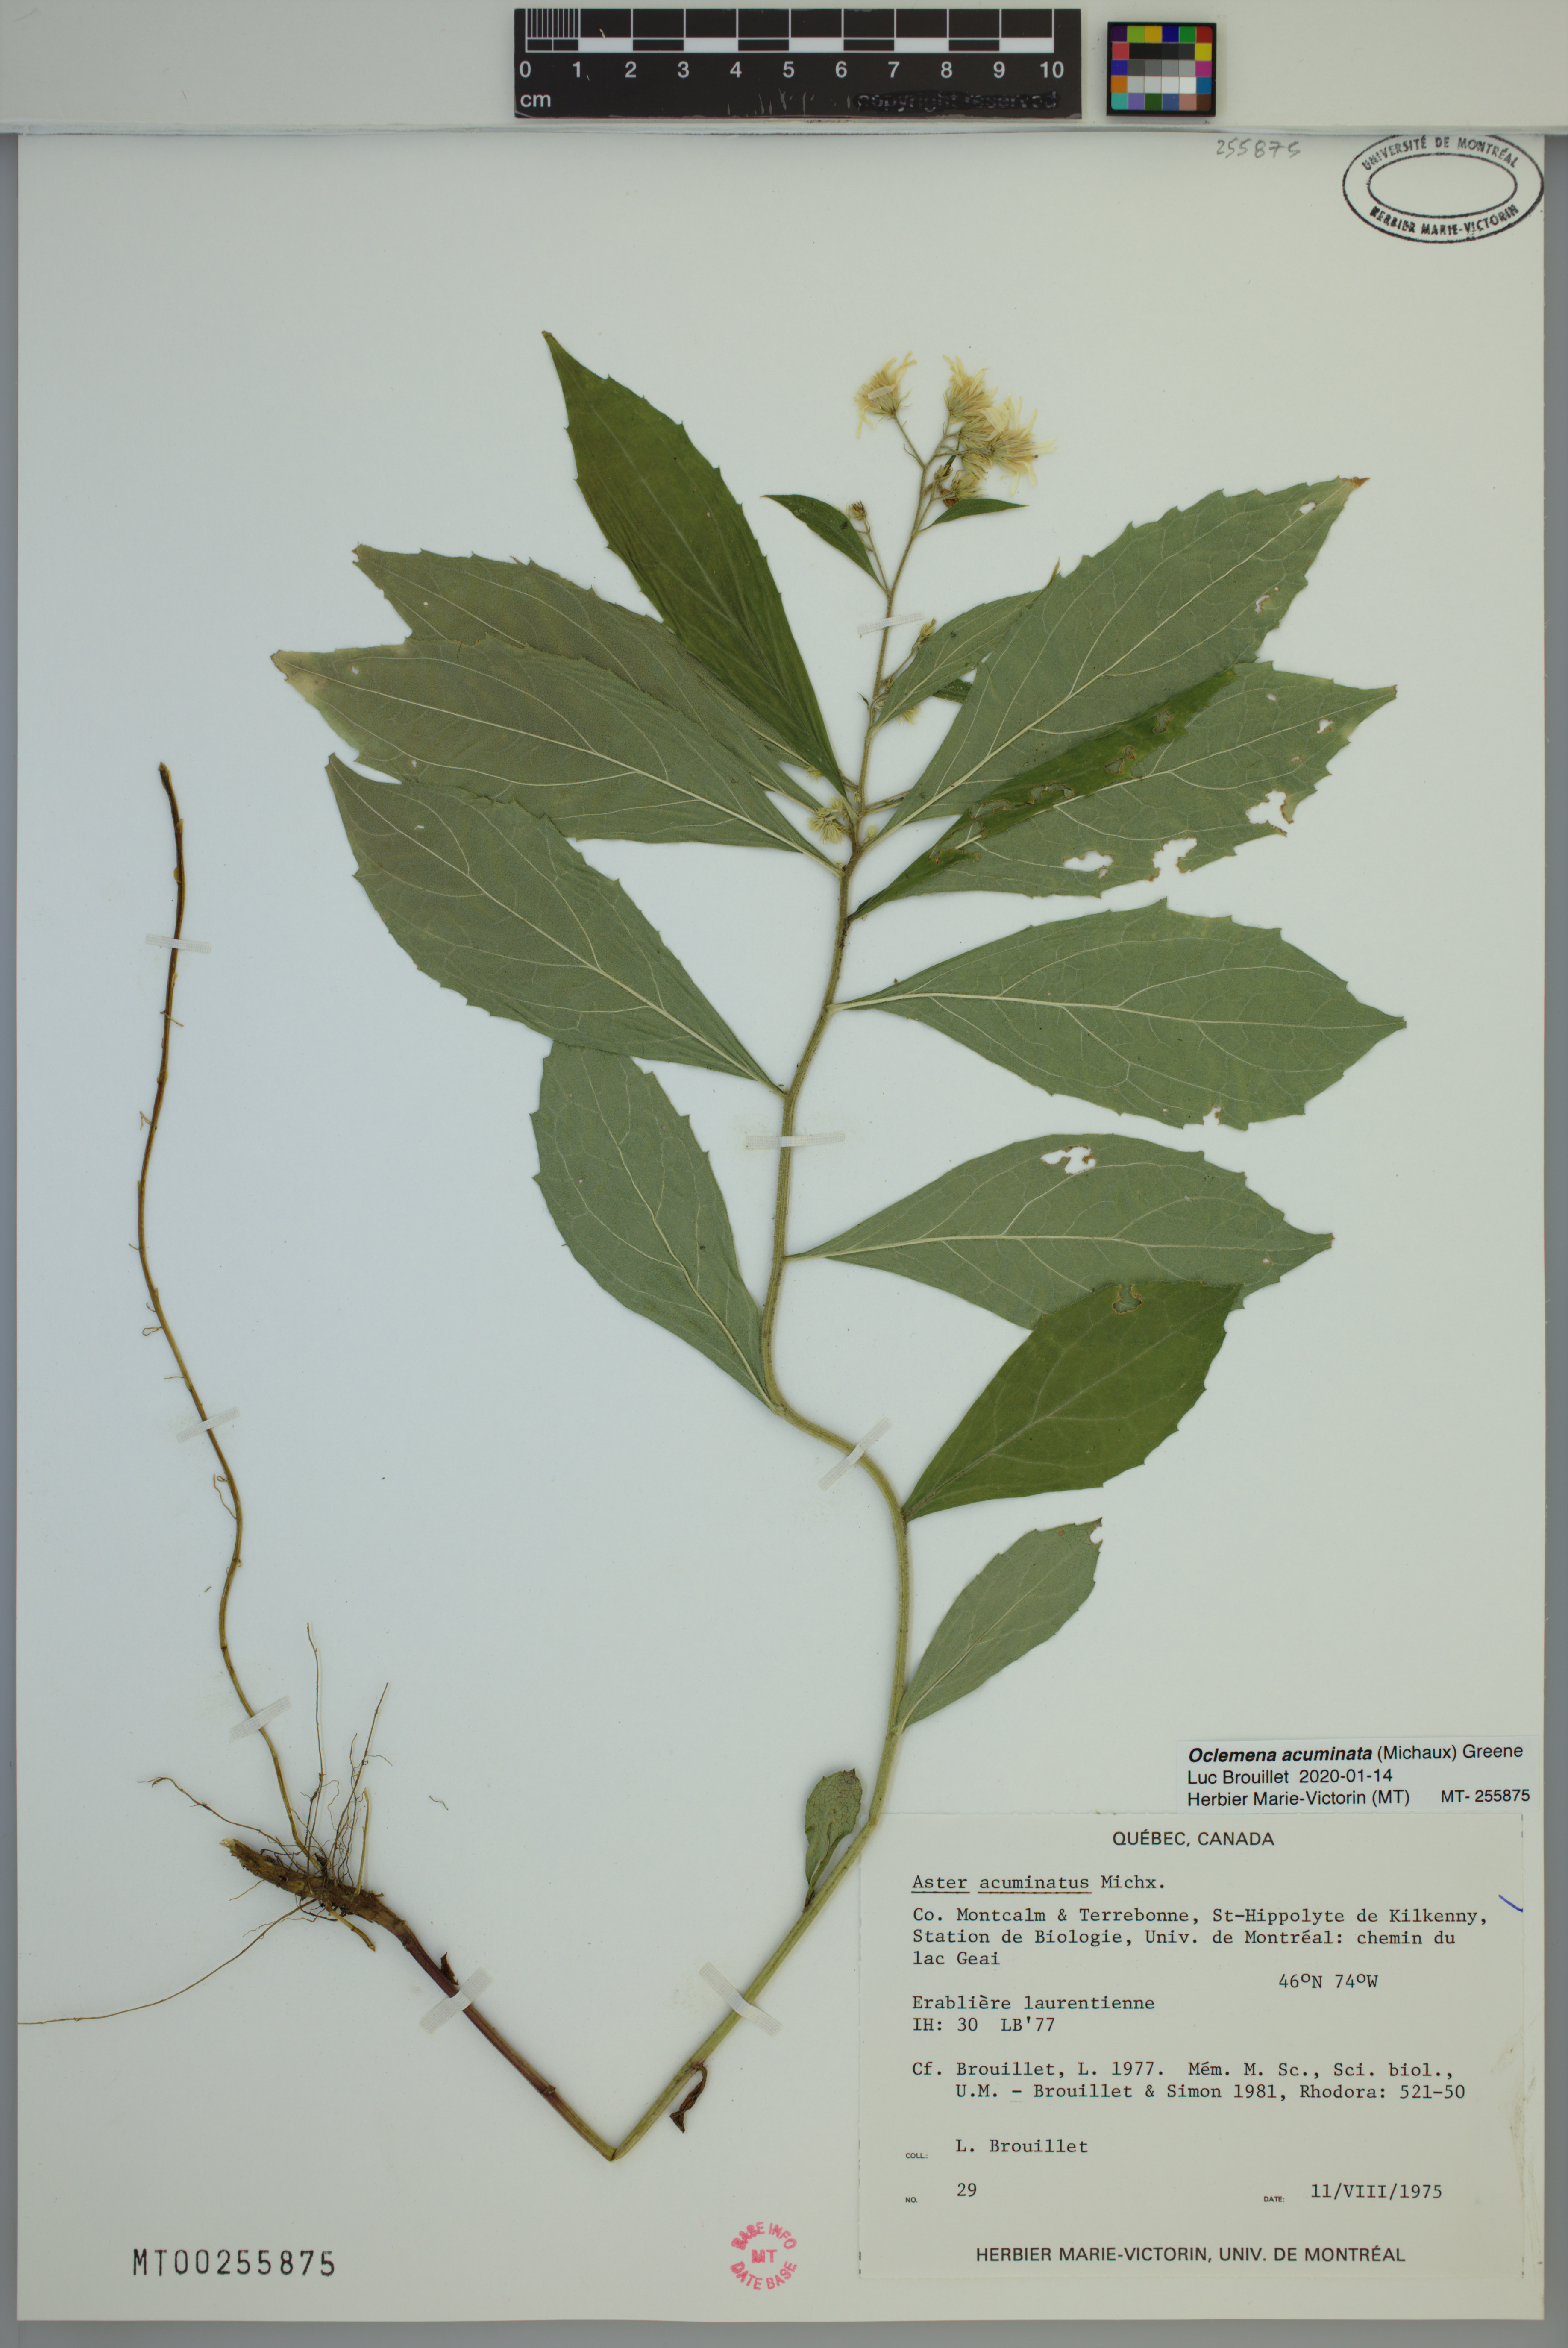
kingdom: Plantae
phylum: Tracheophyta
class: Magnoliopsida
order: Asterales
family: Asteraceae
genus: Oclemena
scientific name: Oclemena acuminata
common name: Mountain aster
